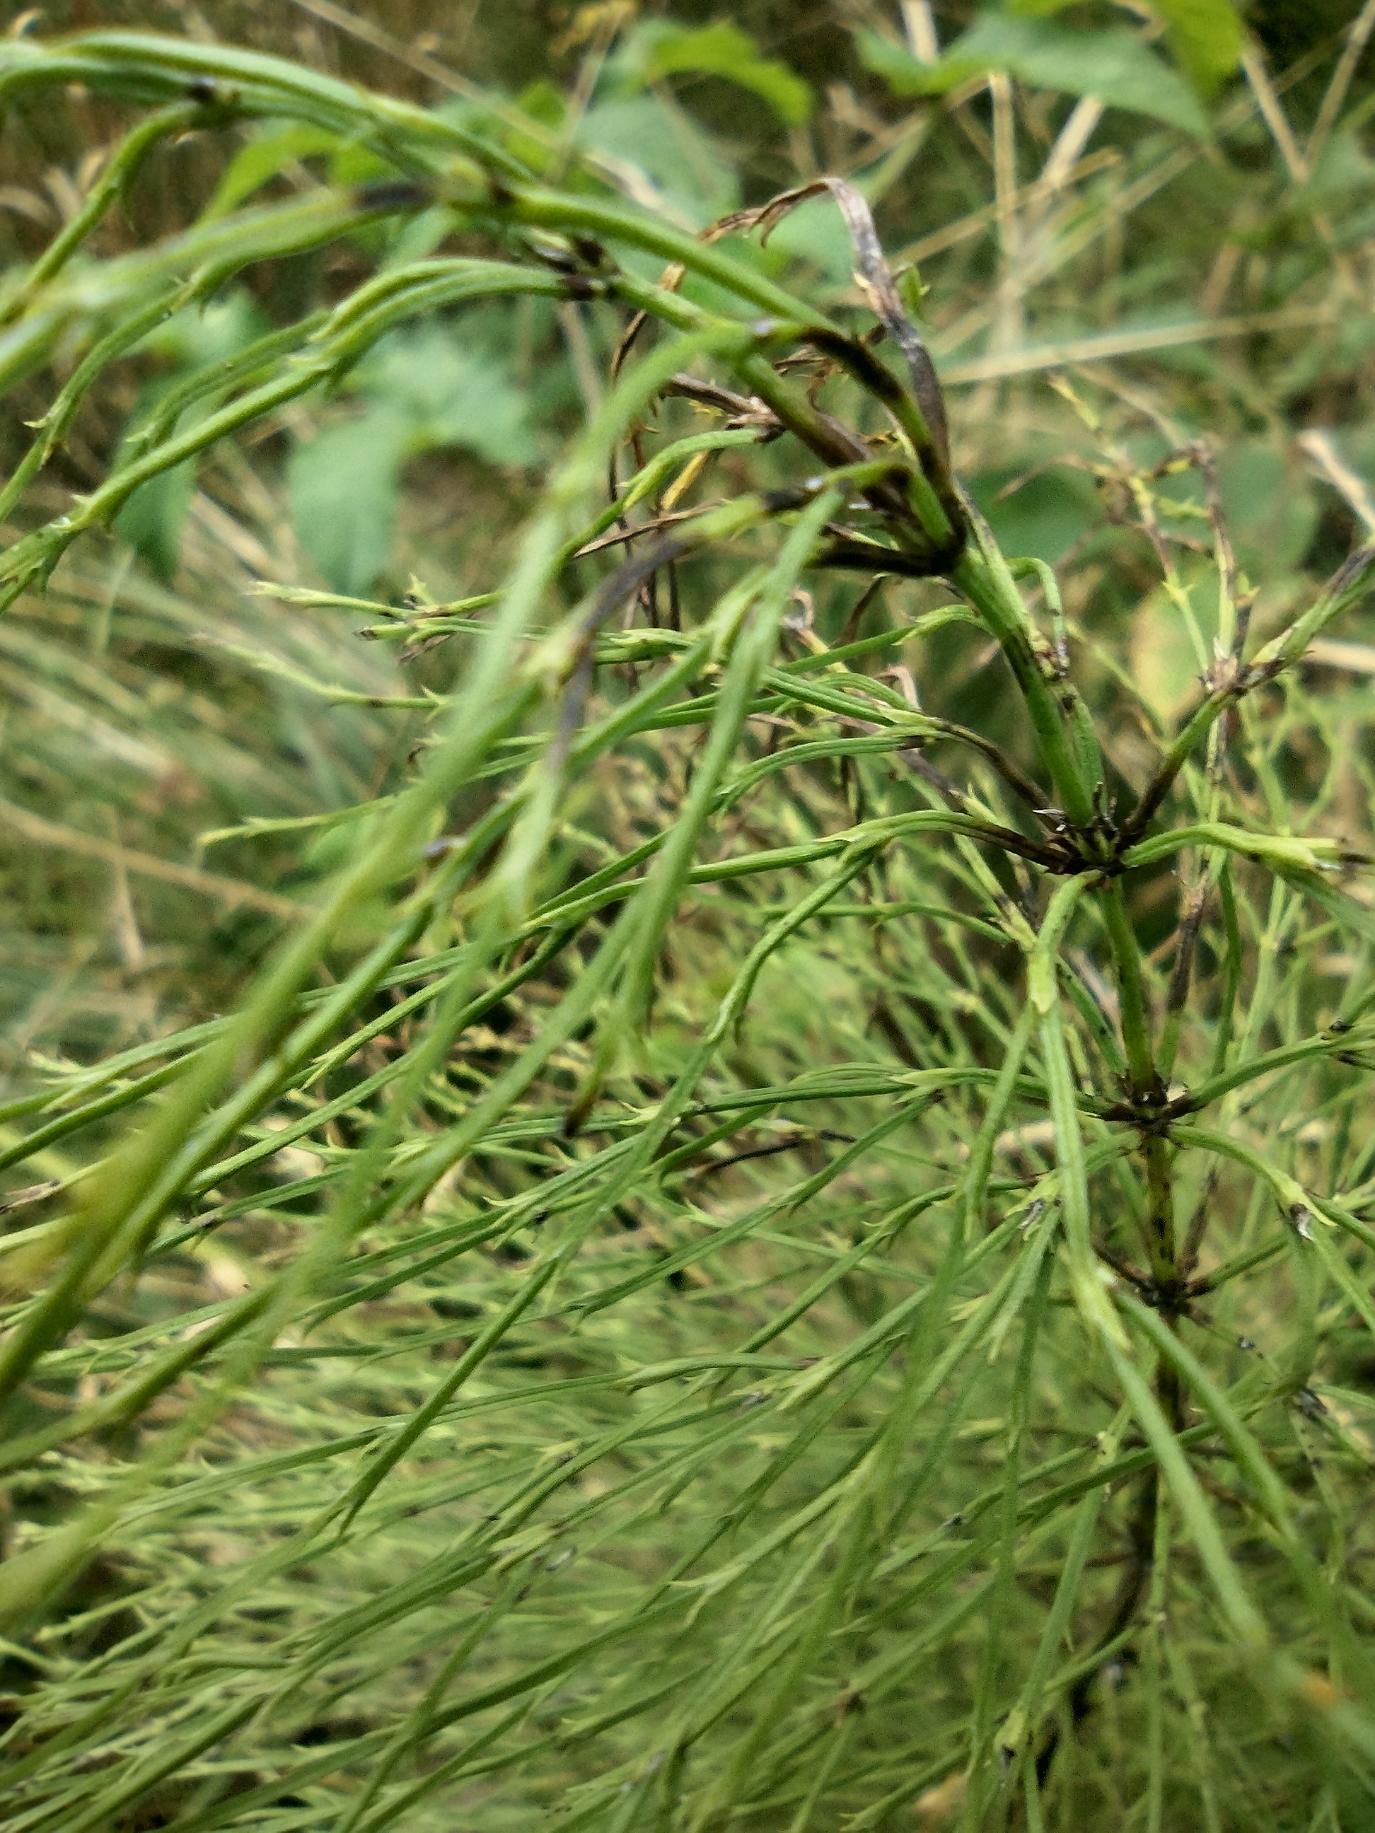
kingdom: Plantae
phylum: Tracheophyta
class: Polypodiopsida
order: Equisetales
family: Equisetaceae
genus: Equisetum
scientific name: Equisetum sylvaticum
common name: Skov-padderok
